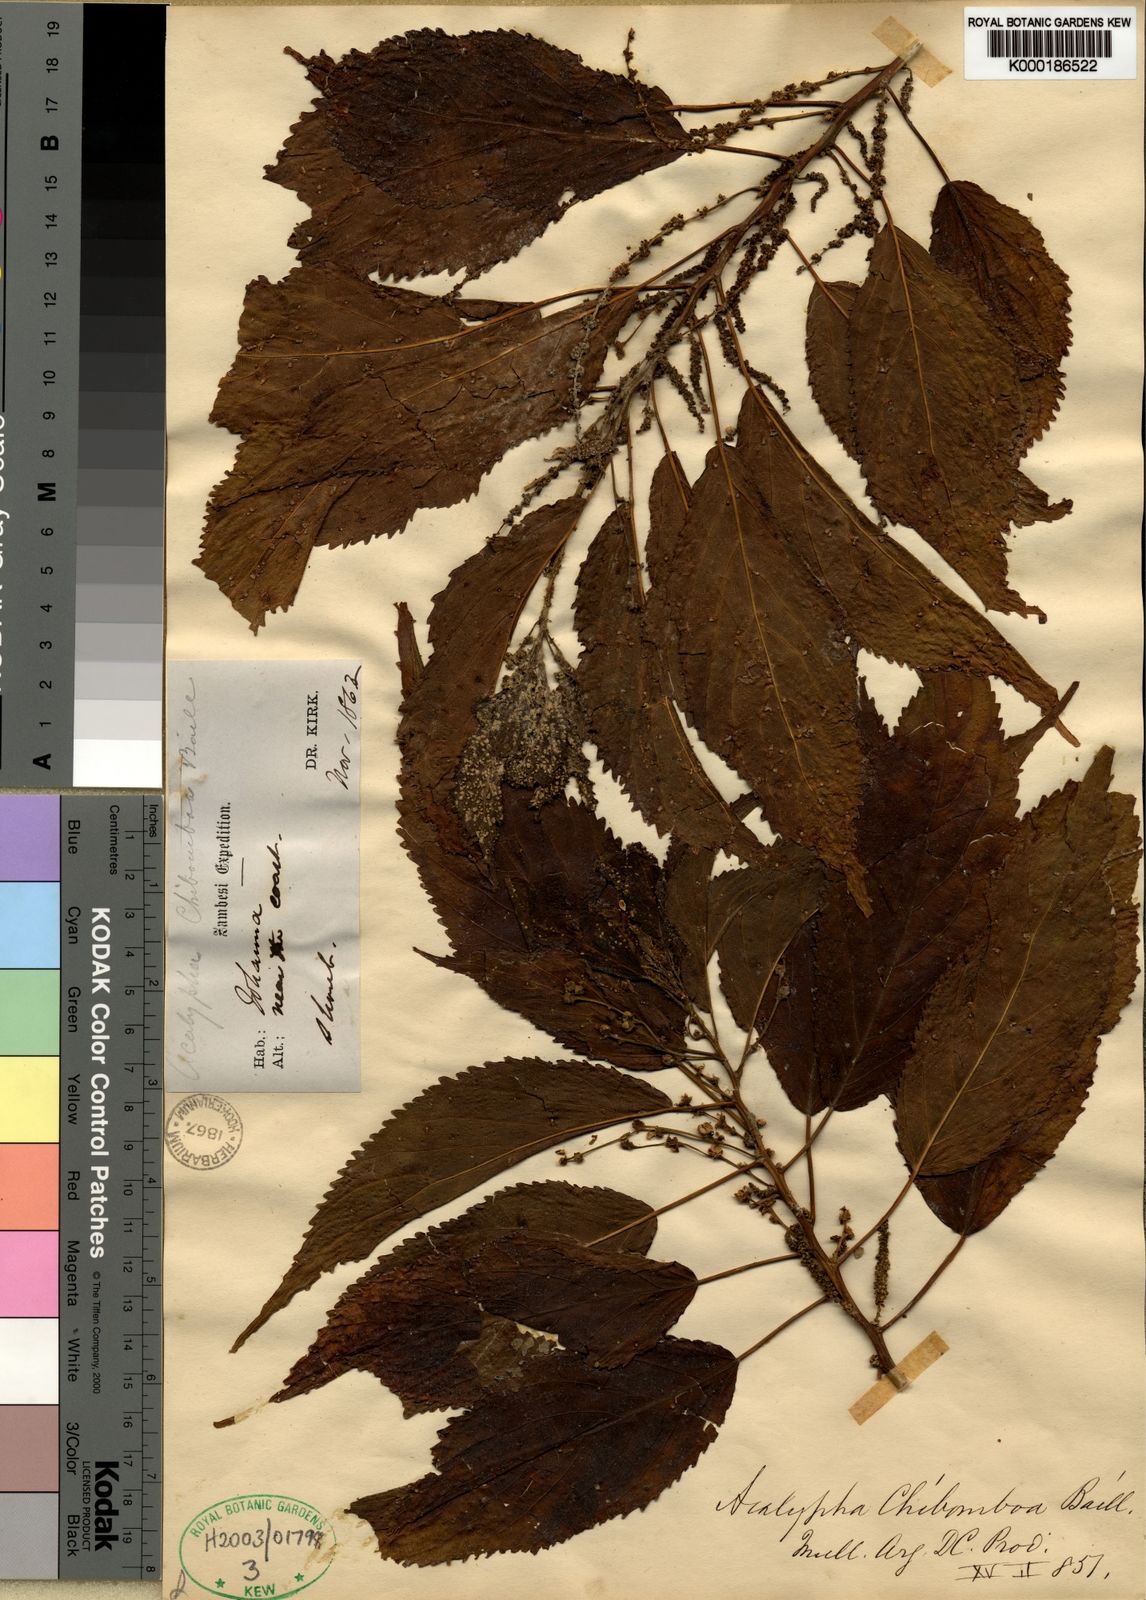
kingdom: Plantae
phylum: Tracheophyta
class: Magnoliopsida
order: Malpighiales
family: Euphorbiaceae
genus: Acalypha
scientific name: Acalypha chibomboa
